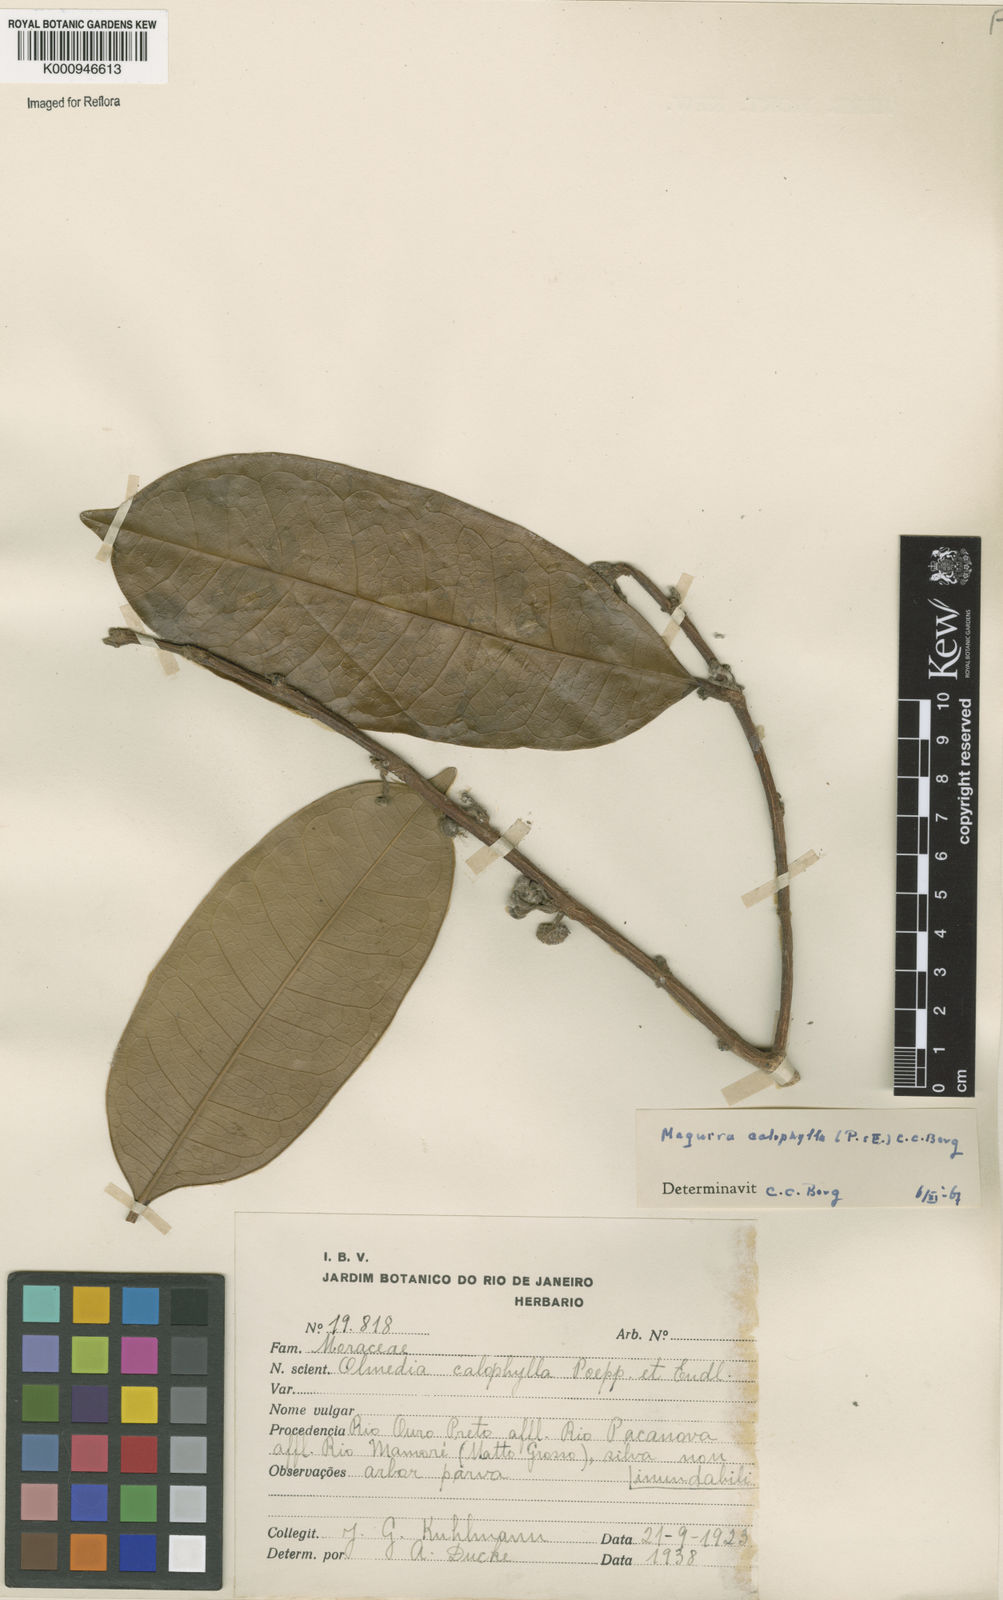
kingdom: Plantae
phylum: Tracheophyta
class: Magnoliopsida
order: Rosales
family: Moraceae
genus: Maquira
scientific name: Maquira calophylla
